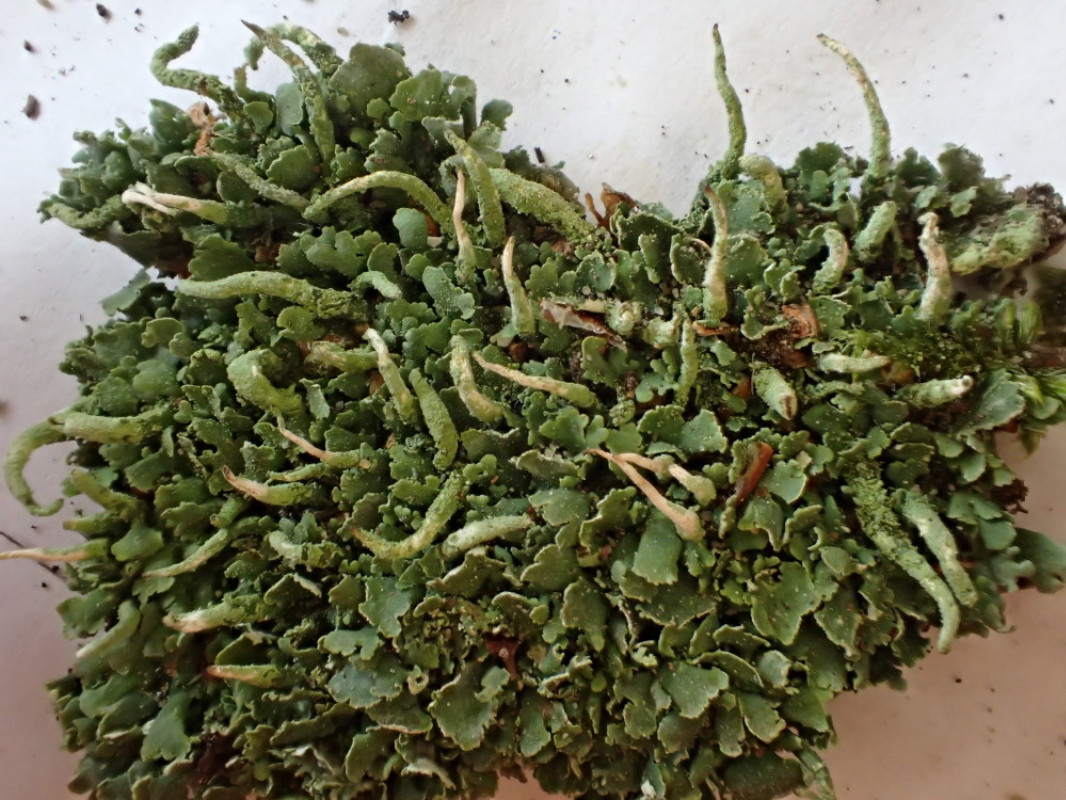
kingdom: Fungi
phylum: Ascomycota
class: Lecanoromycetes
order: Lecanorales
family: Cladoniaceae
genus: Cladonia
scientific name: Cladonia coniocraea
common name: træfods-bægerlav
